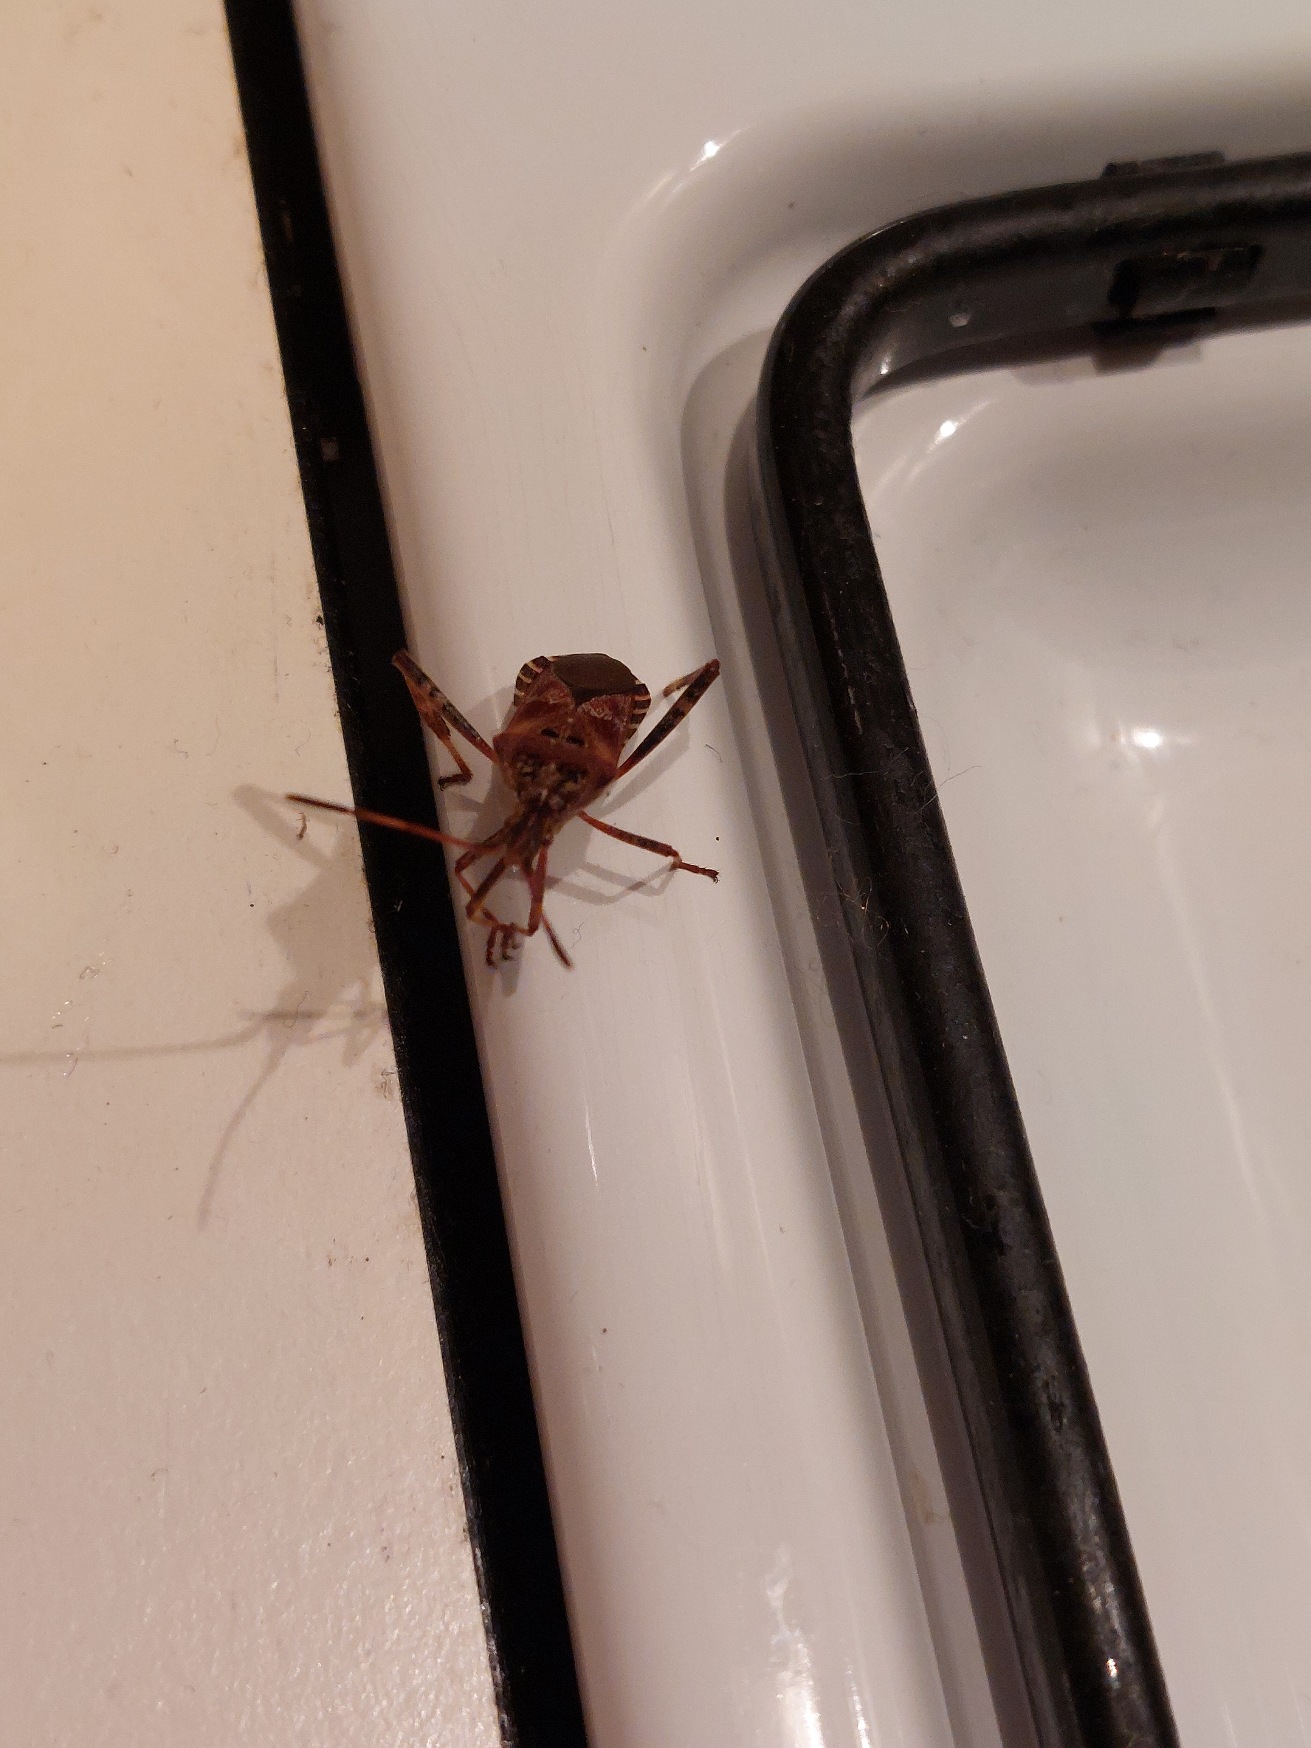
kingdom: Animalia
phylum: Arthropoda
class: Insecta
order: Hemiptera
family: Coreidae
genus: Leptoglossus
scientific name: Leptoglossus occidentalis
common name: Amerikansk fyrretæge
